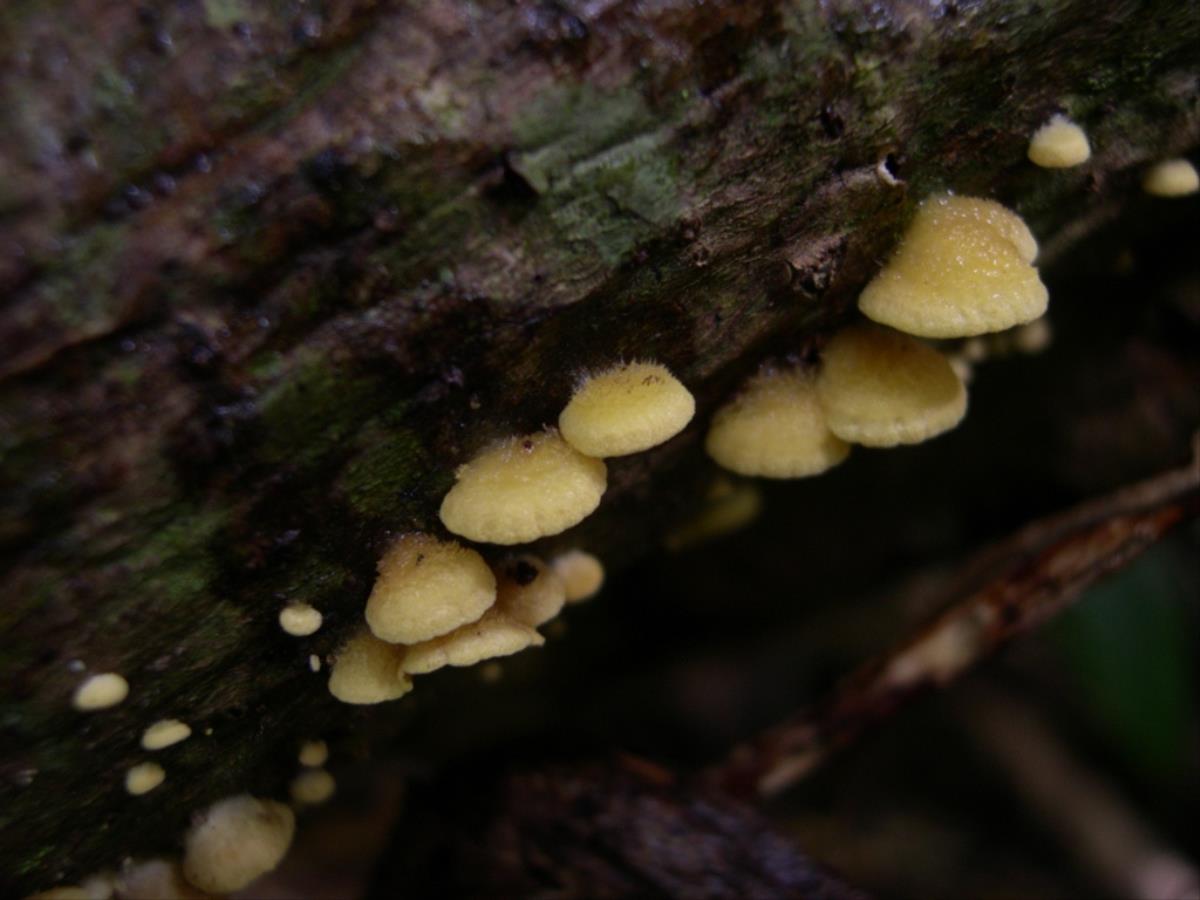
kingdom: Fungi
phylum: Basidiomycota
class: Agaricomycetes
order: Agaricales
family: Crepidotaceae
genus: Crepidotus
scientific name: Crepidotus aureus
